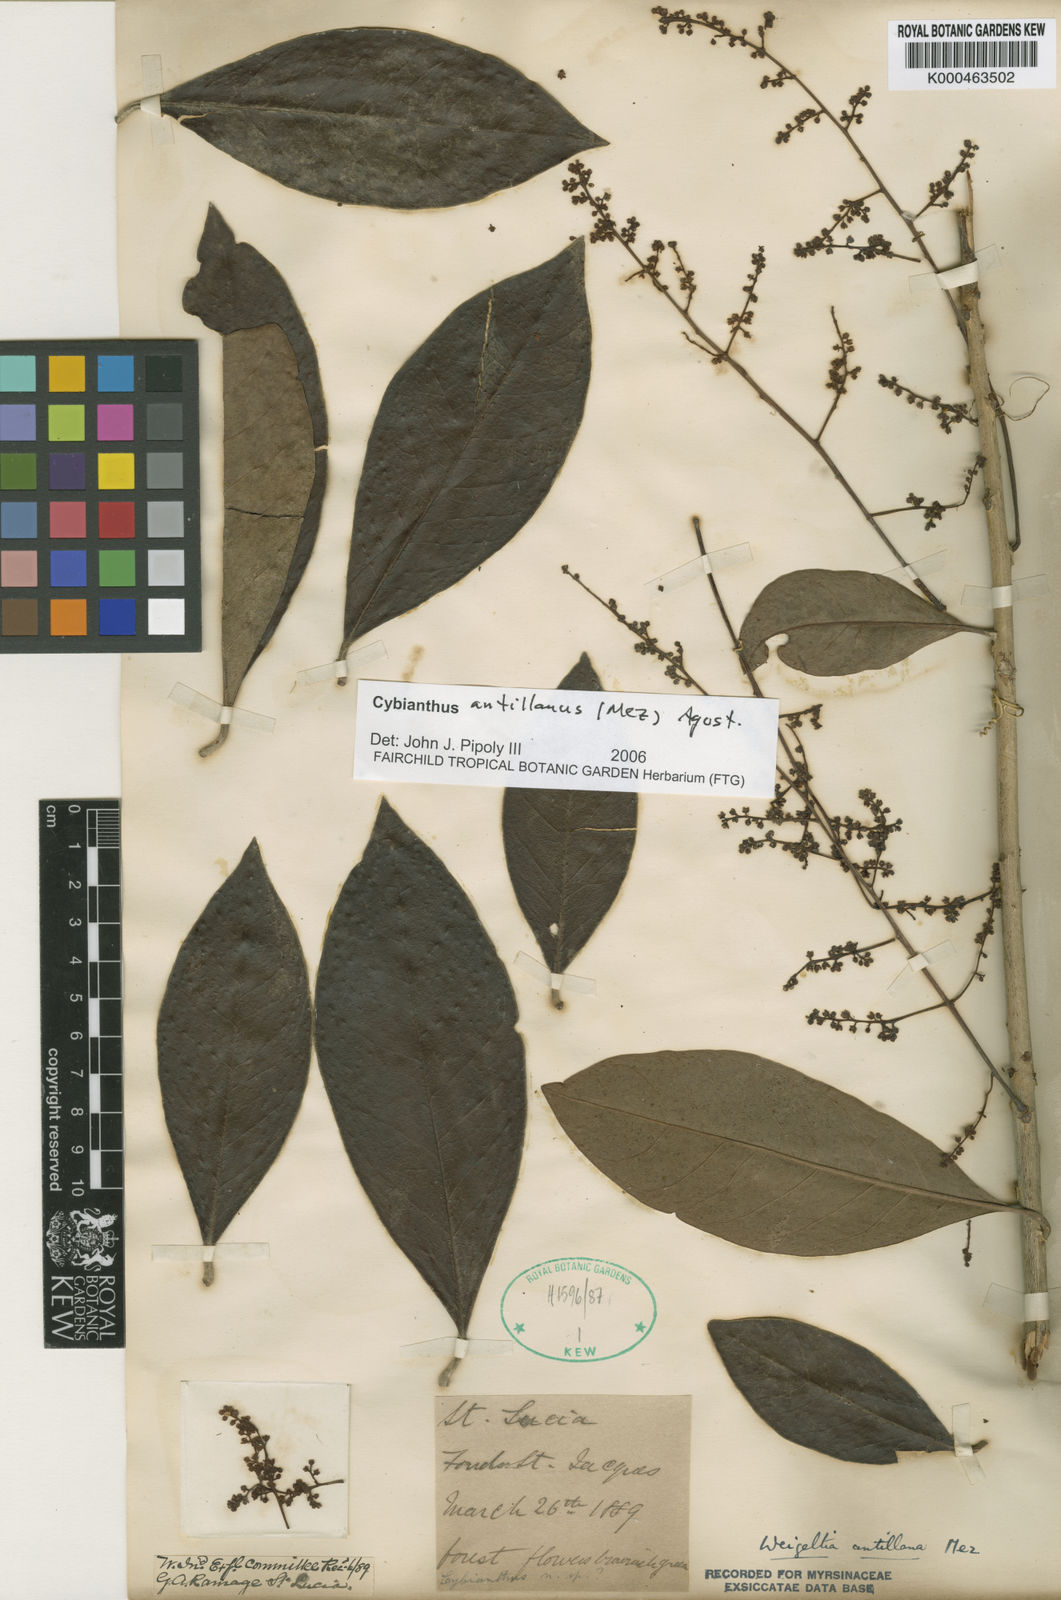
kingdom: Plantae
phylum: Tracheophyta
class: Magnoliopsida
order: Ericales
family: Primulaceae
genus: Cybianthus
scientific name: Cybianthus antillanus
